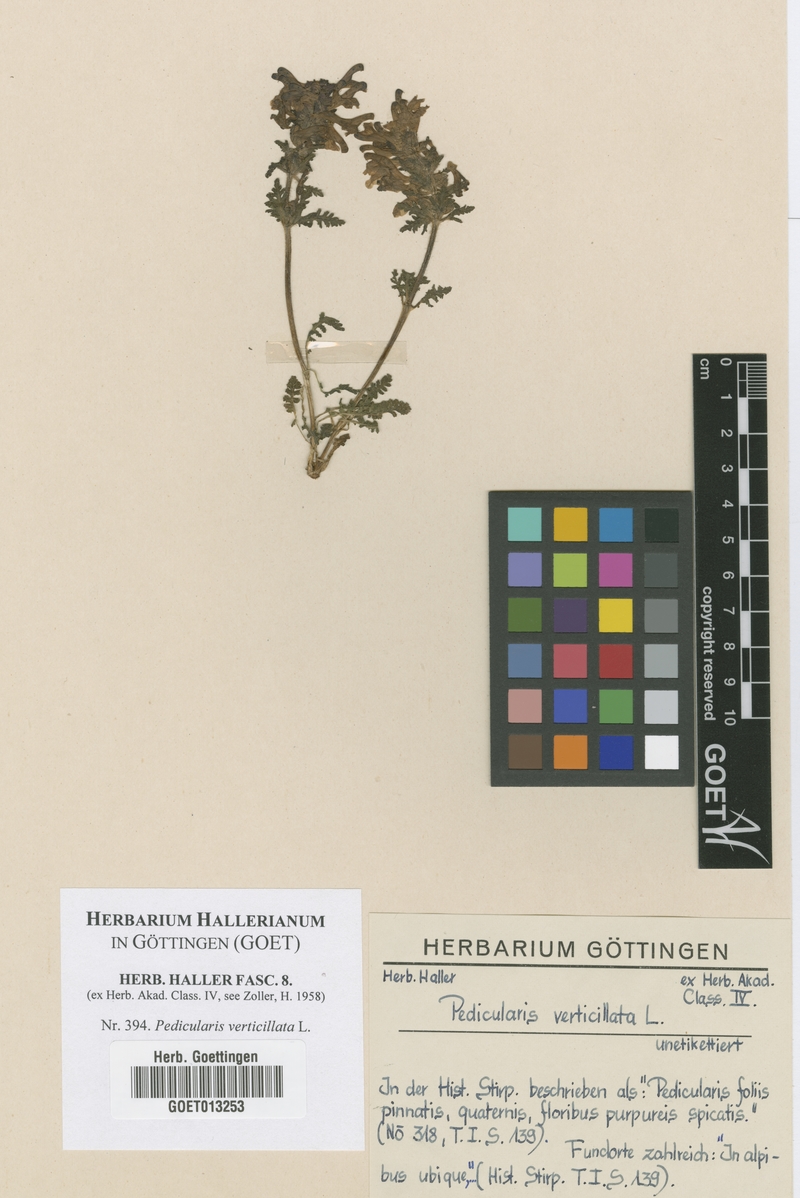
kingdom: Plantae
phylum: Tracheophyta
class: Magnoliopsida
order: Lamiales
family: Orobanchaceae
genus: Pedicularis
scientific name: Pedicularis verticillata
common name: Whorled lousewort
